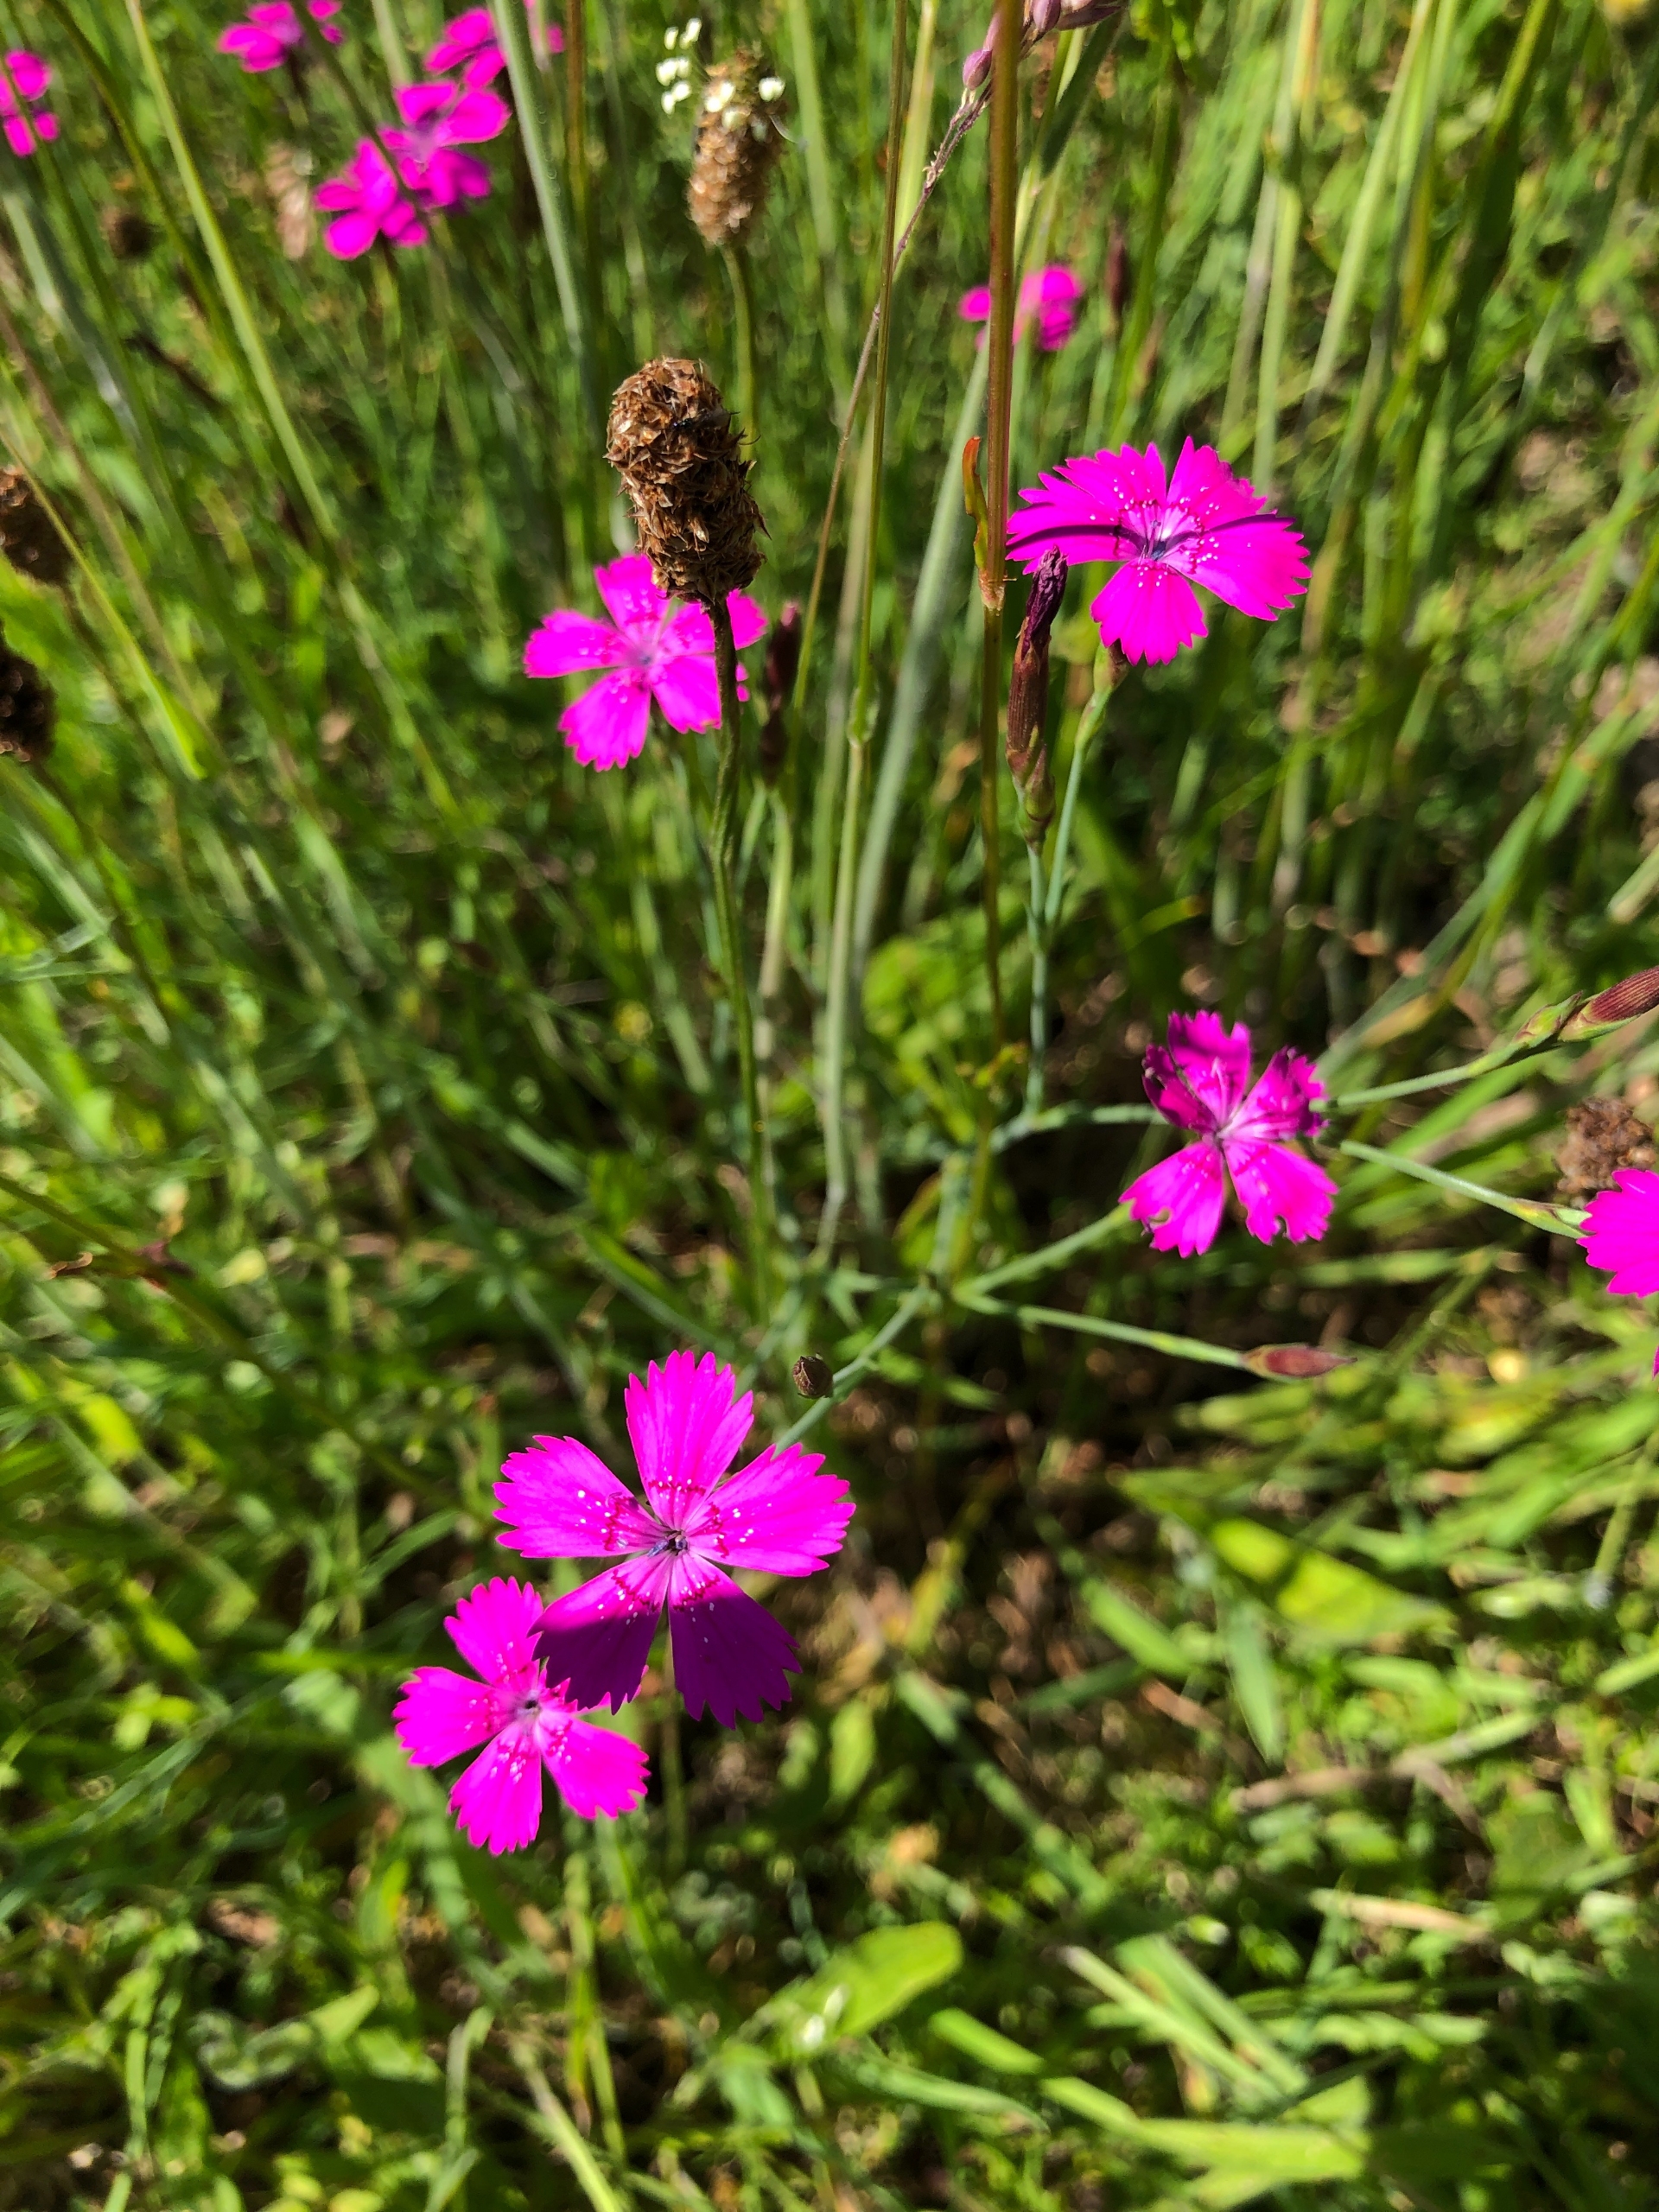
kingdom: Plantae
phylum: Tracheophyta
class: Magnoliopsida
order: Caryophyllales
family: Caryophyllaceae
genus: Dianthus
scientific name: Dianthus deltoides
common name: Bakke-nellike
